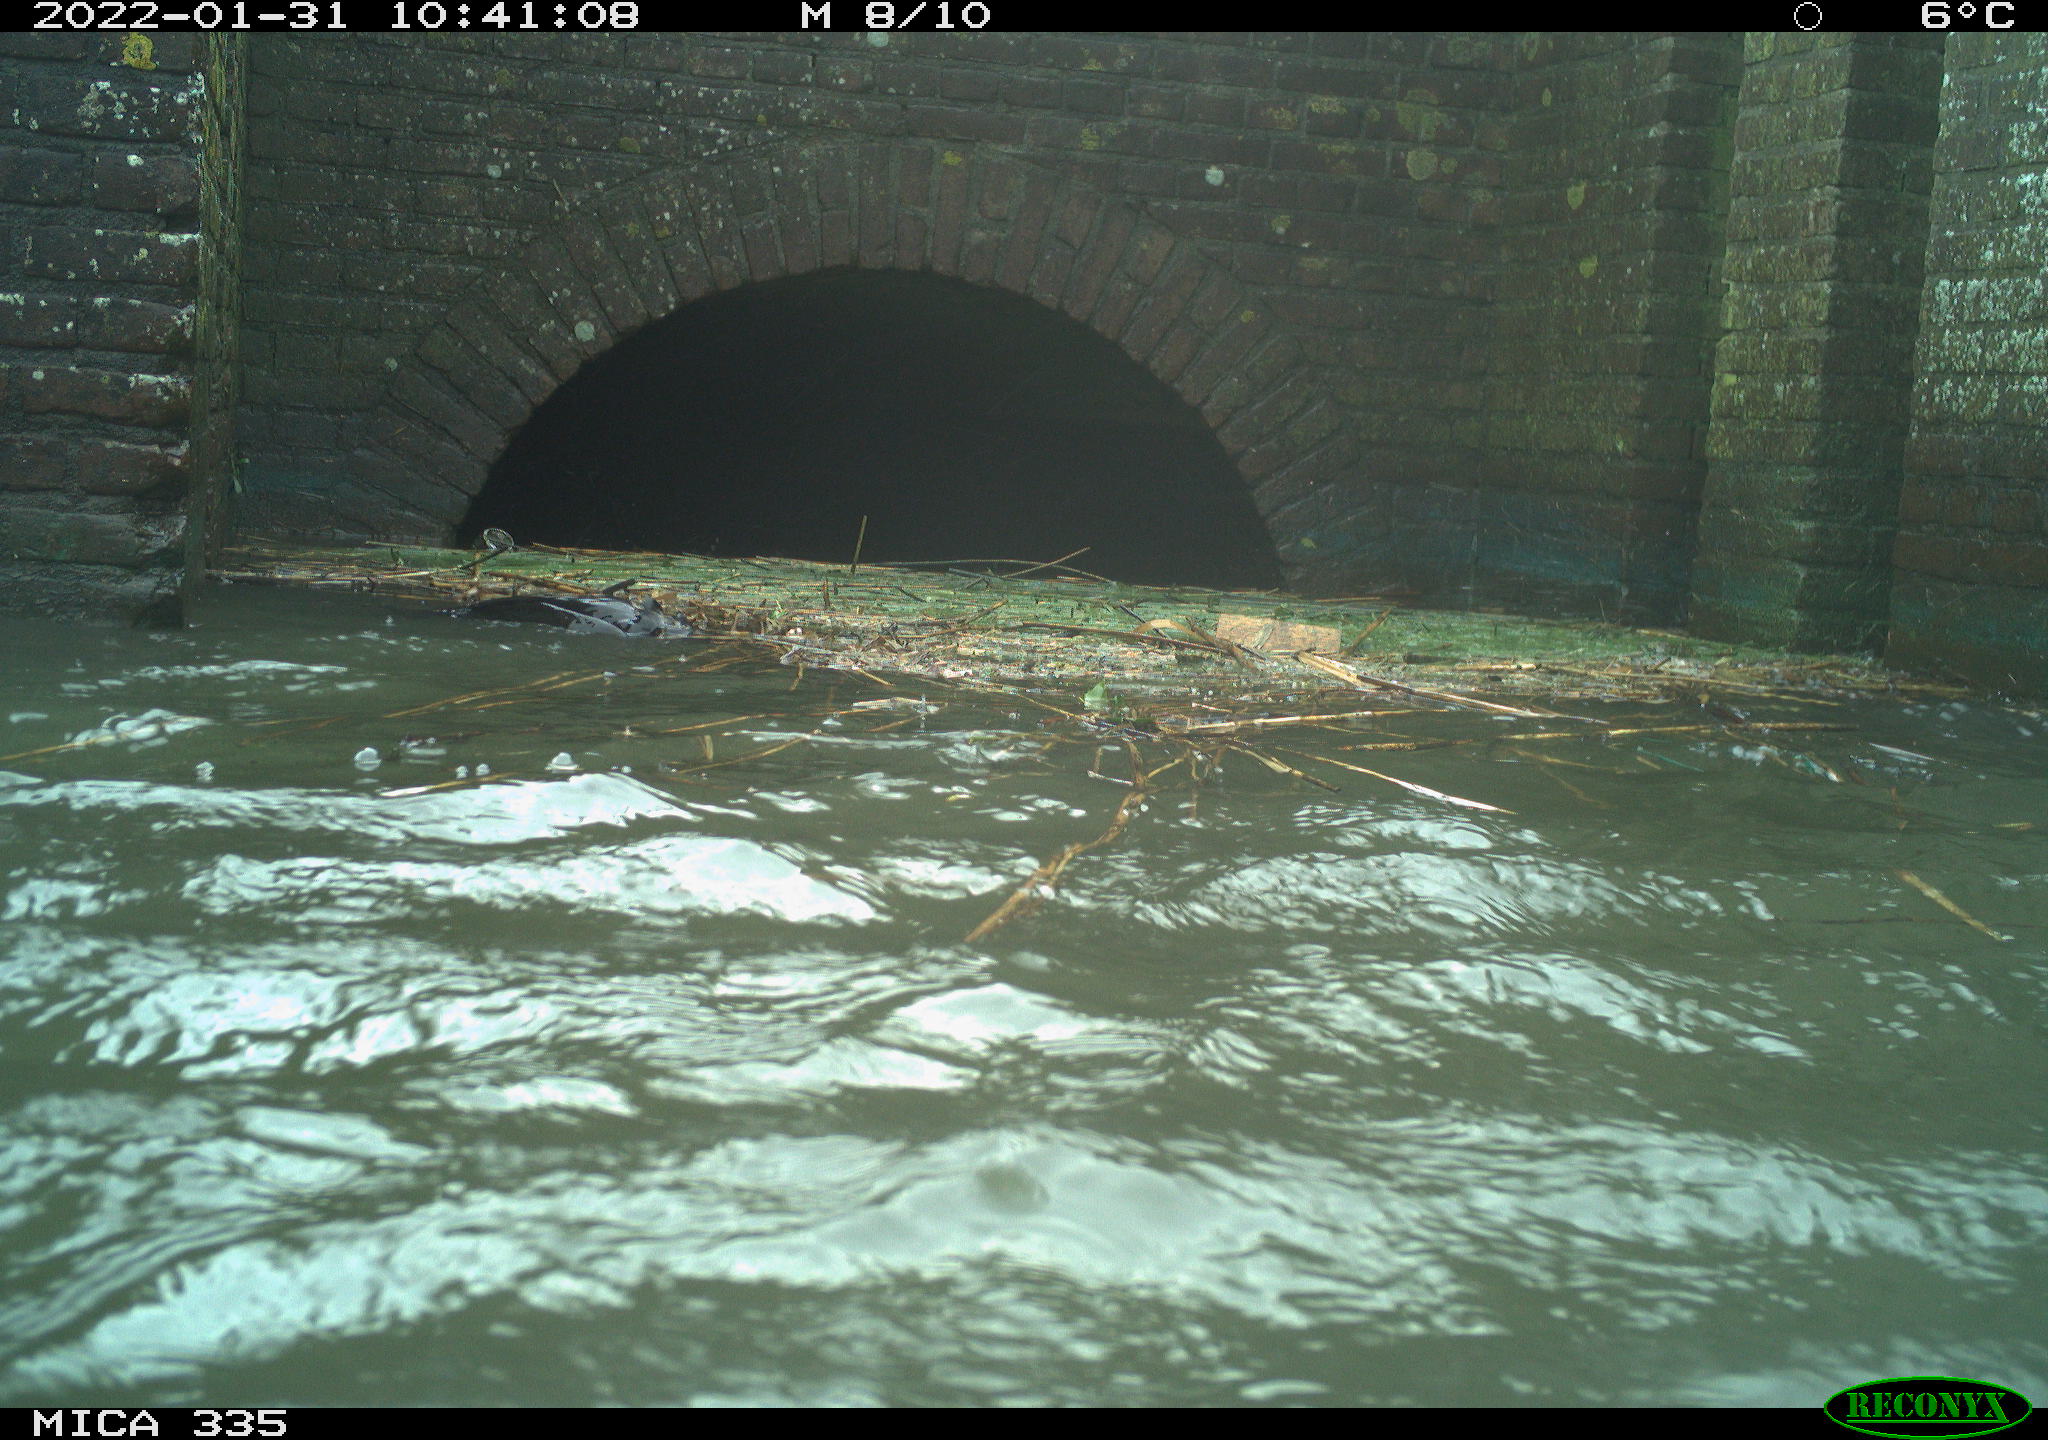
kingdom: Animalia
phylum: Chordata
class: Aves
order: Podicipediformes
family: Podicipedidae
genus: Podiceps
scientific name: Podiceps cristatus
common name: Great crested grebe
